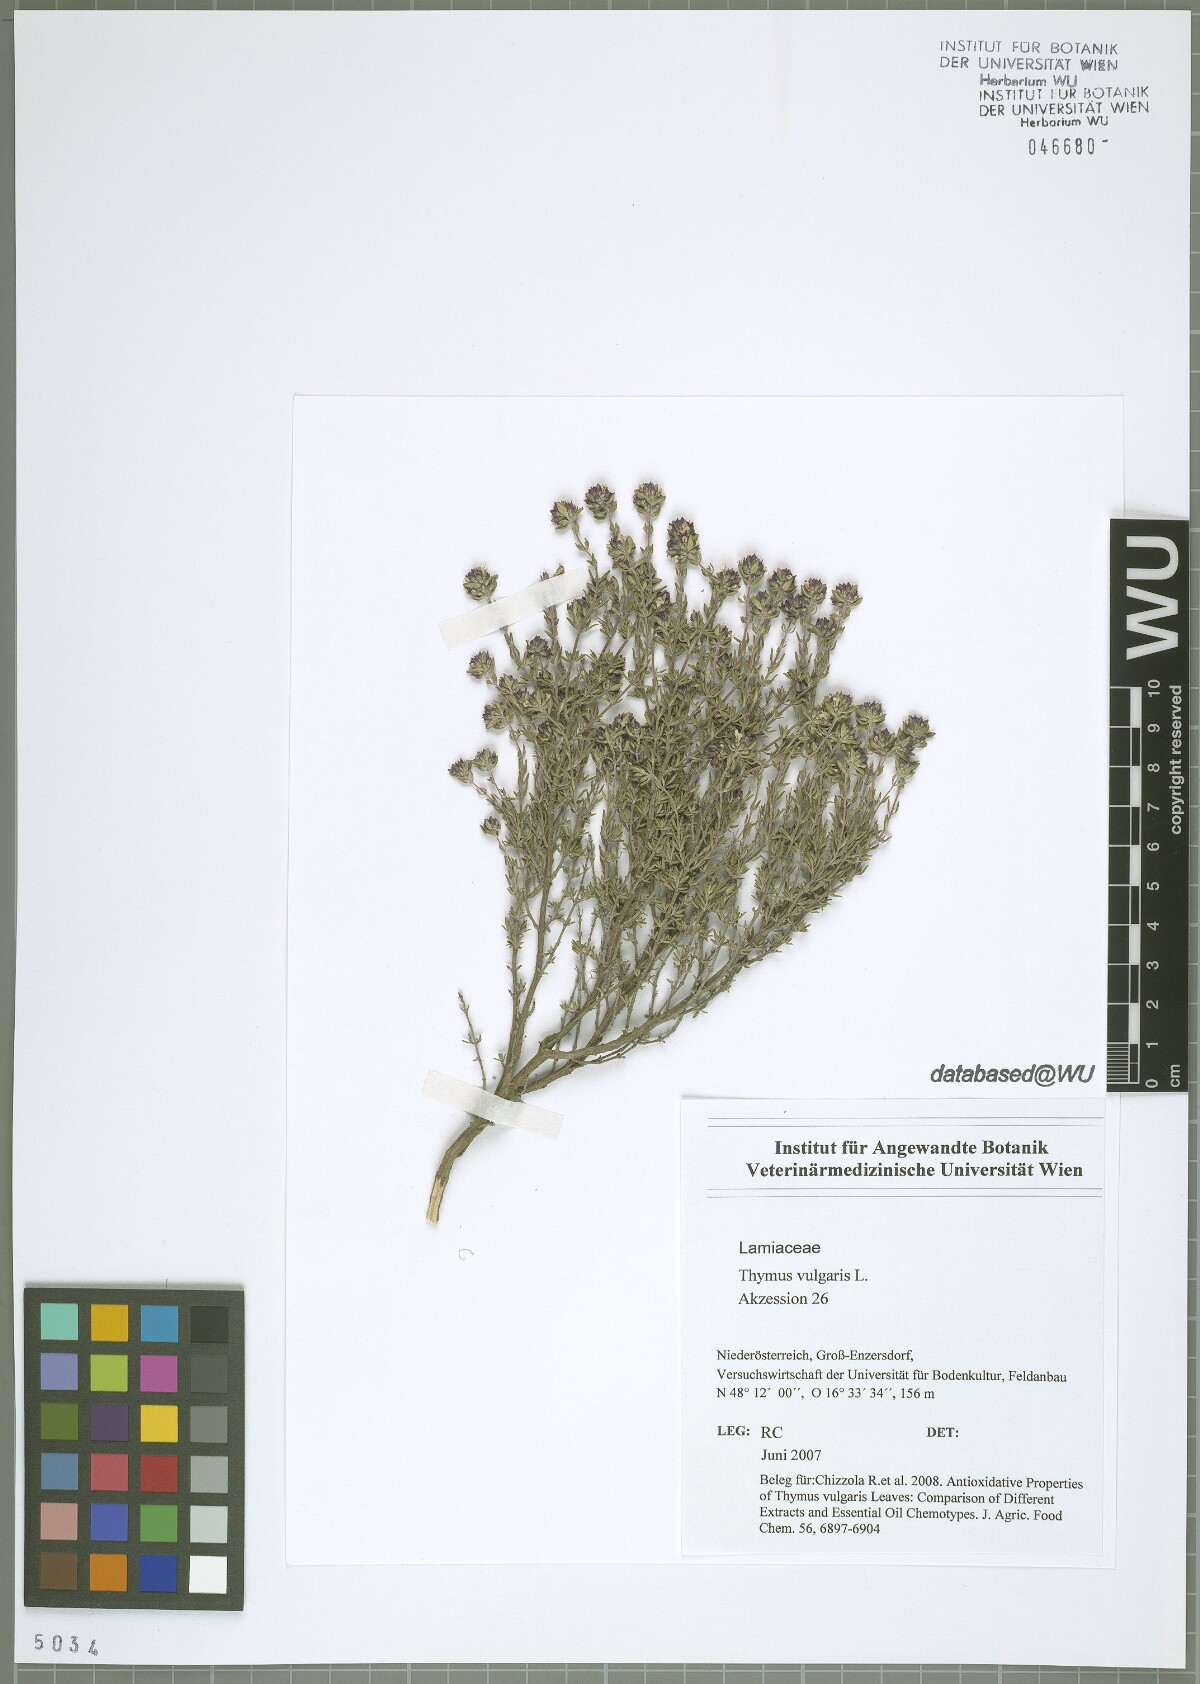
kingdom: Plantae
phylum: Tracheophyta
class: Magnoliopsida
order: Lamiales
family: Lamiaceae
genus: Thymus
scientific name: Thymus vulgaris
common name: Garden thyme
